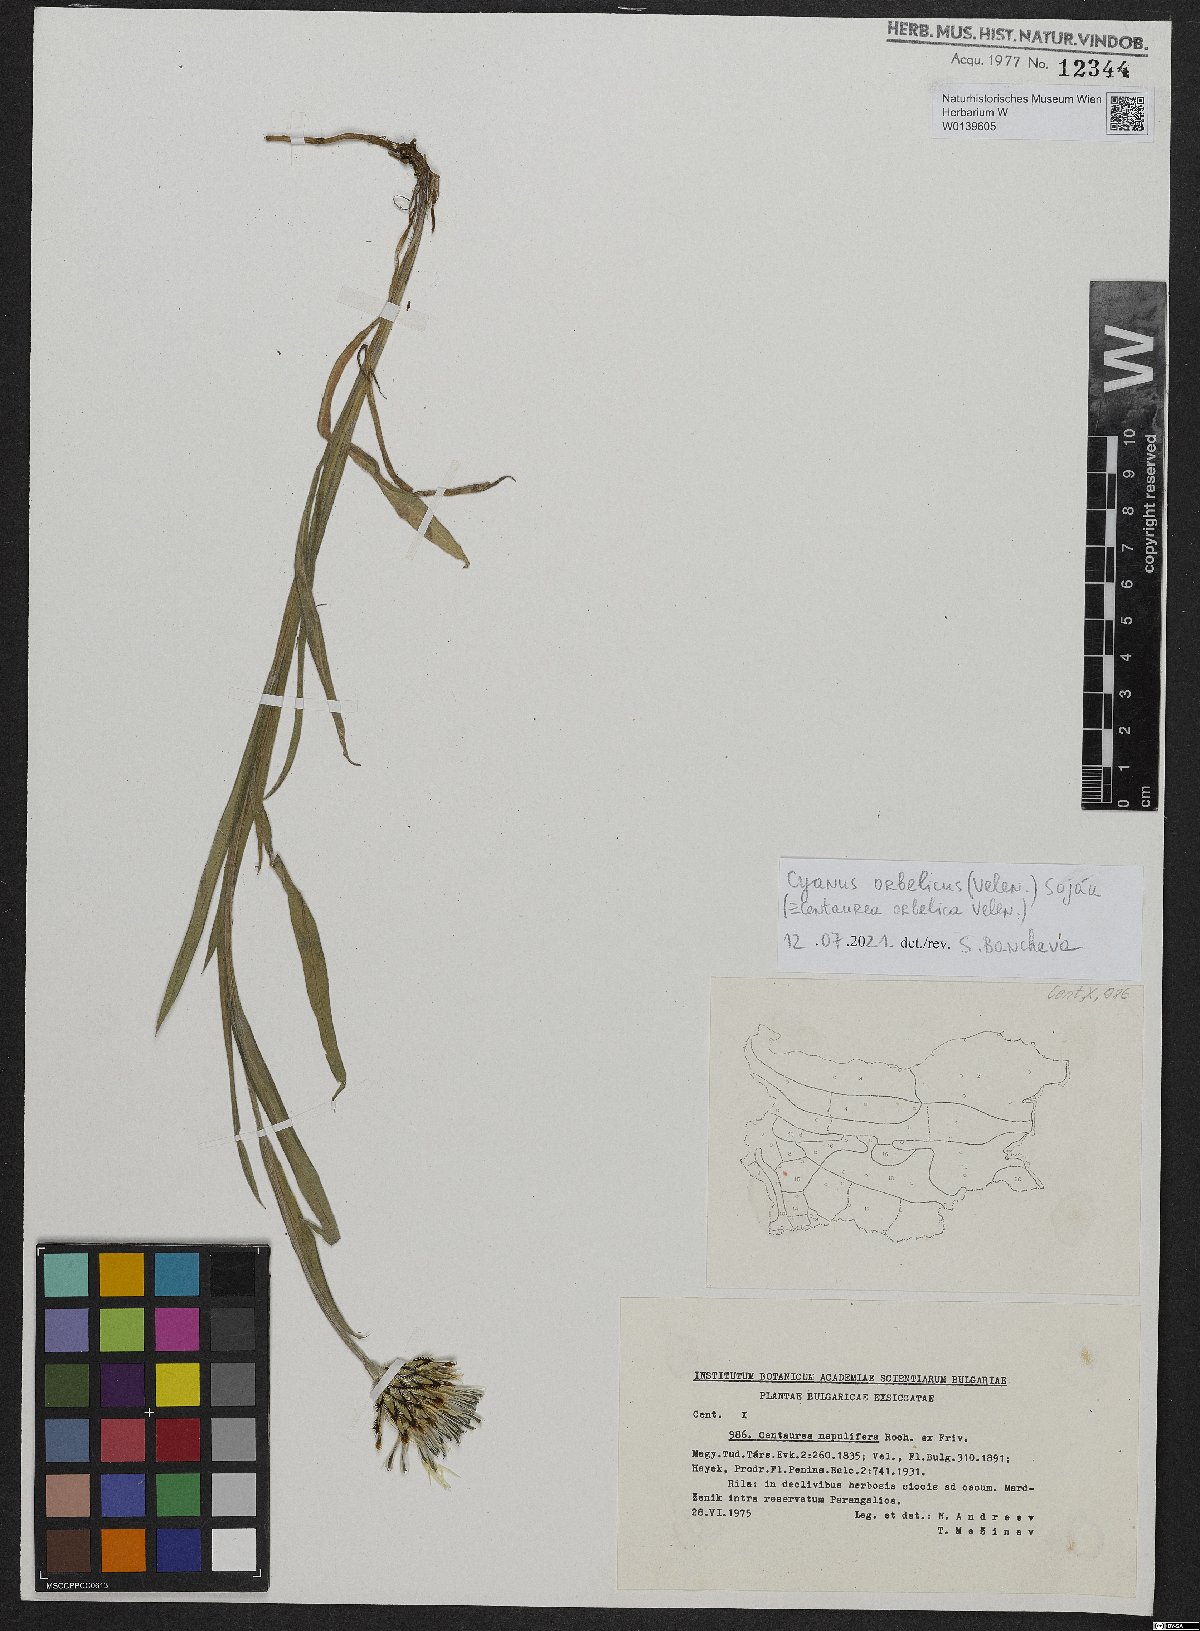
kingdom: Plantae
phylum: Tracheophyta
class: Magnoliopsida
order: Asterales
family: Asteraceae
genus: Centaurea
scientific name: Centaurea orbelica
